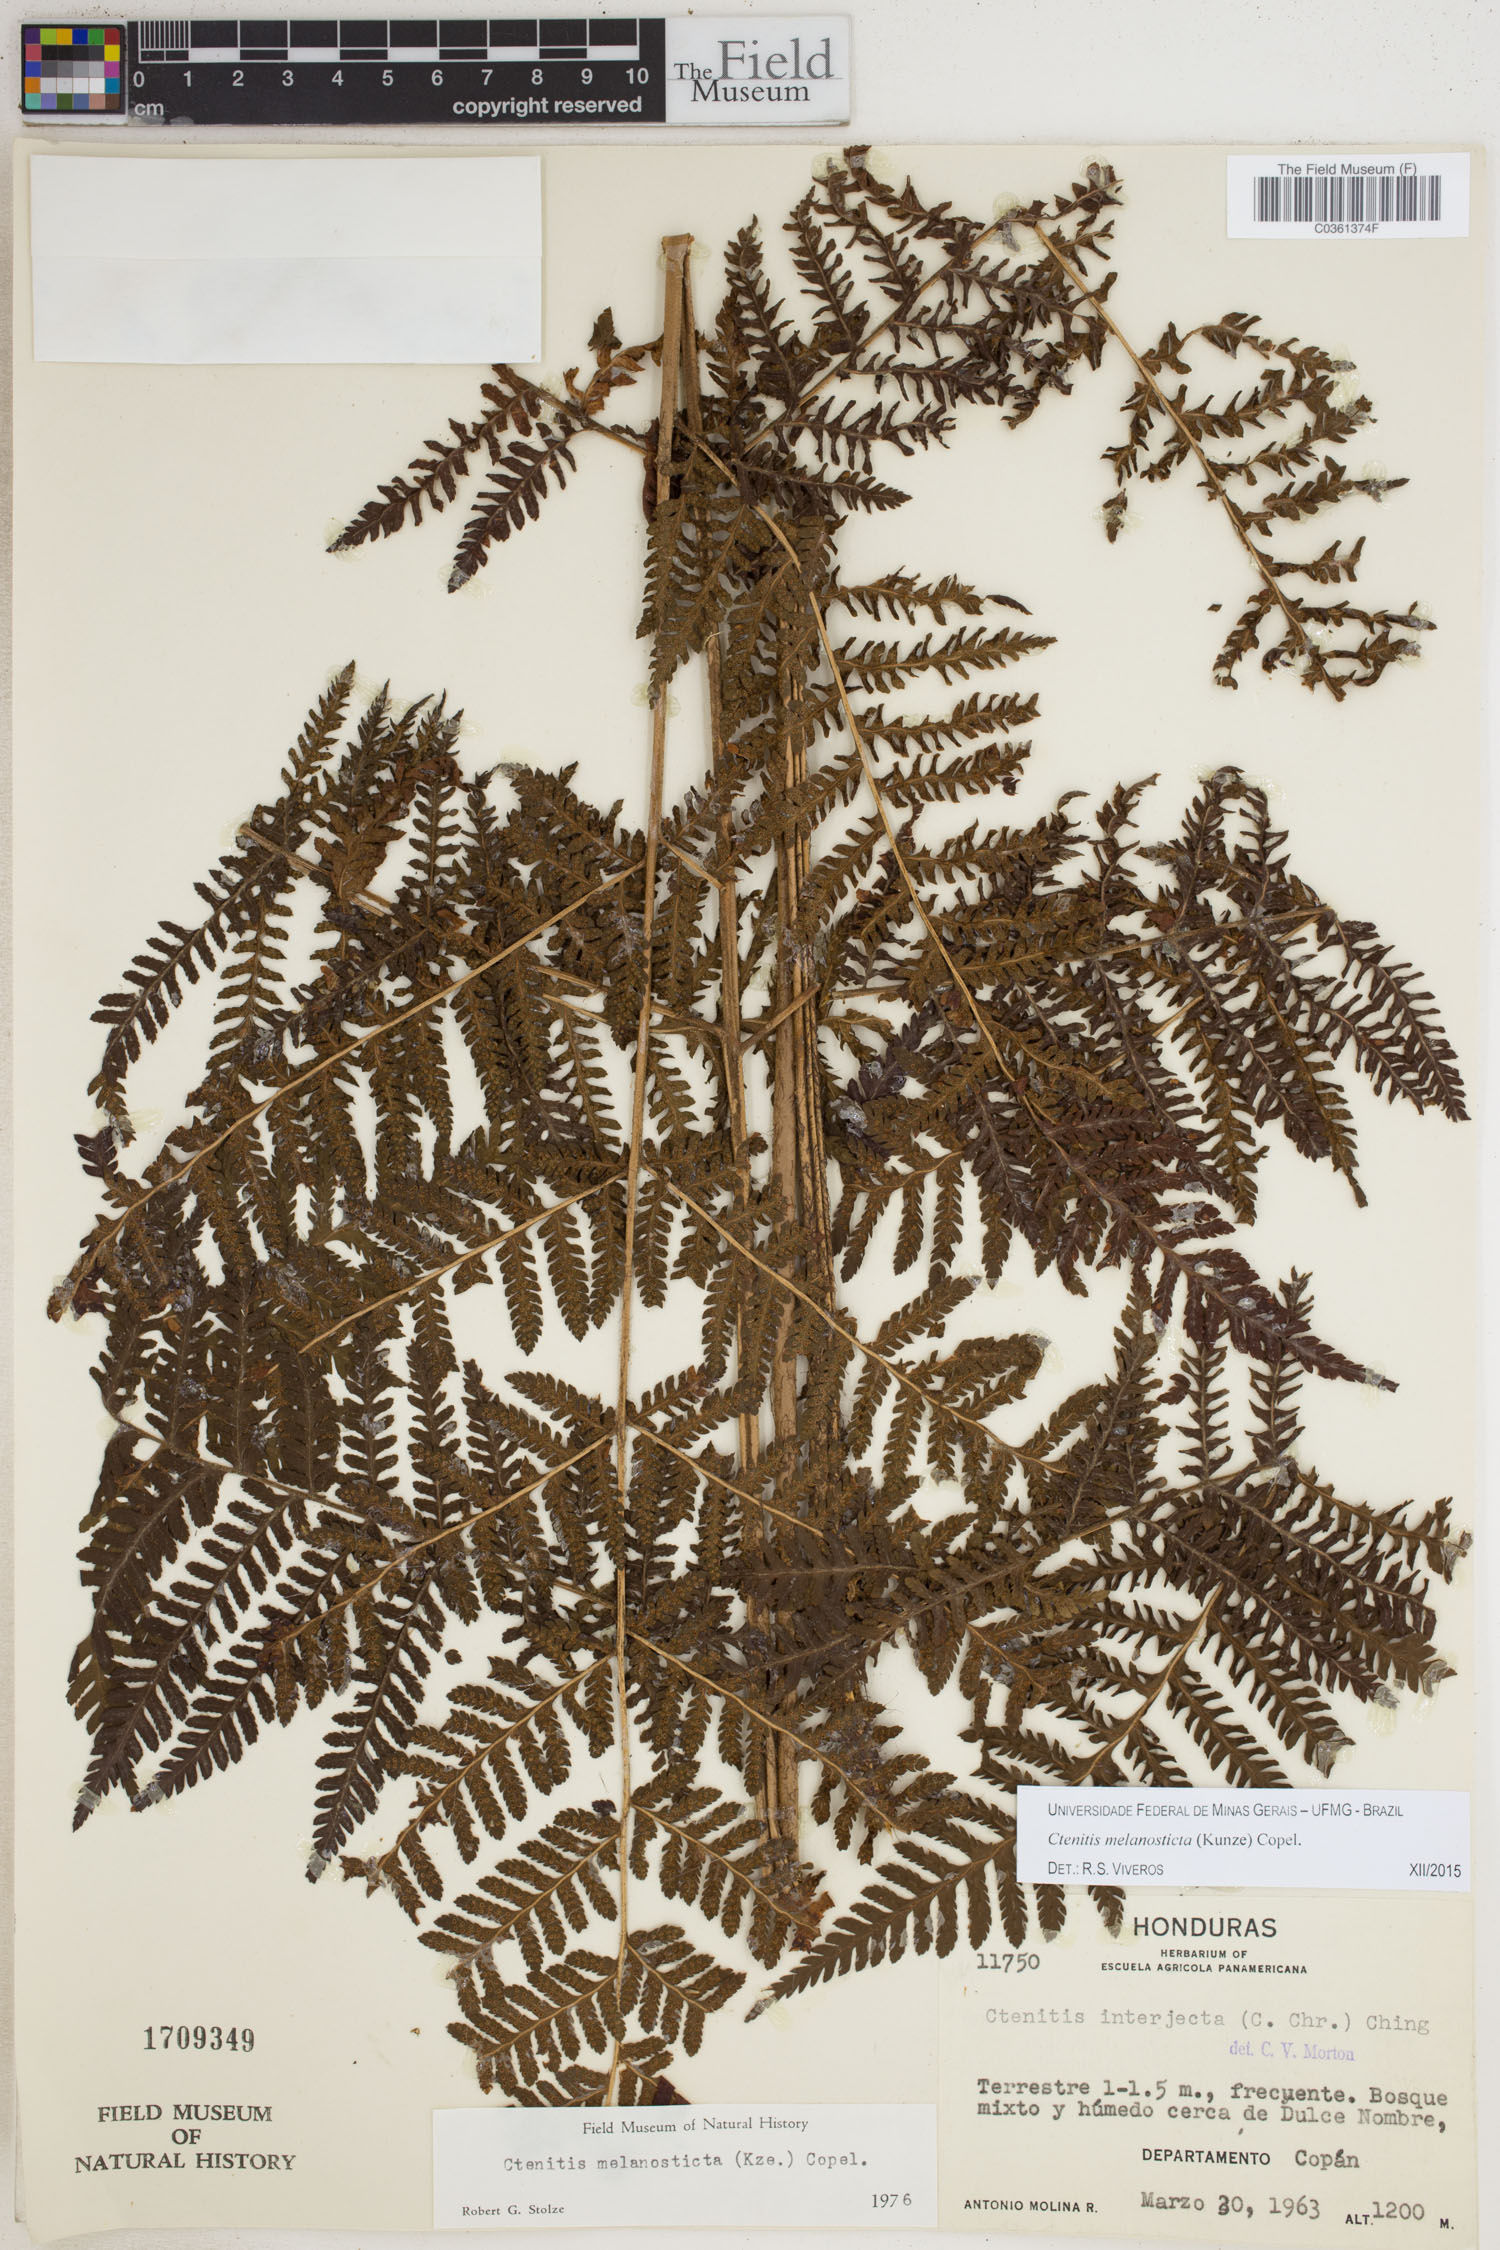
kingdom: Plantae
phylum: Tracheophyta
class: Polypodiopsida
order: Polypodiales
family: Dryopteridaceae
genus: Ctenitis
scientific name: Ctenitis melanosticta
